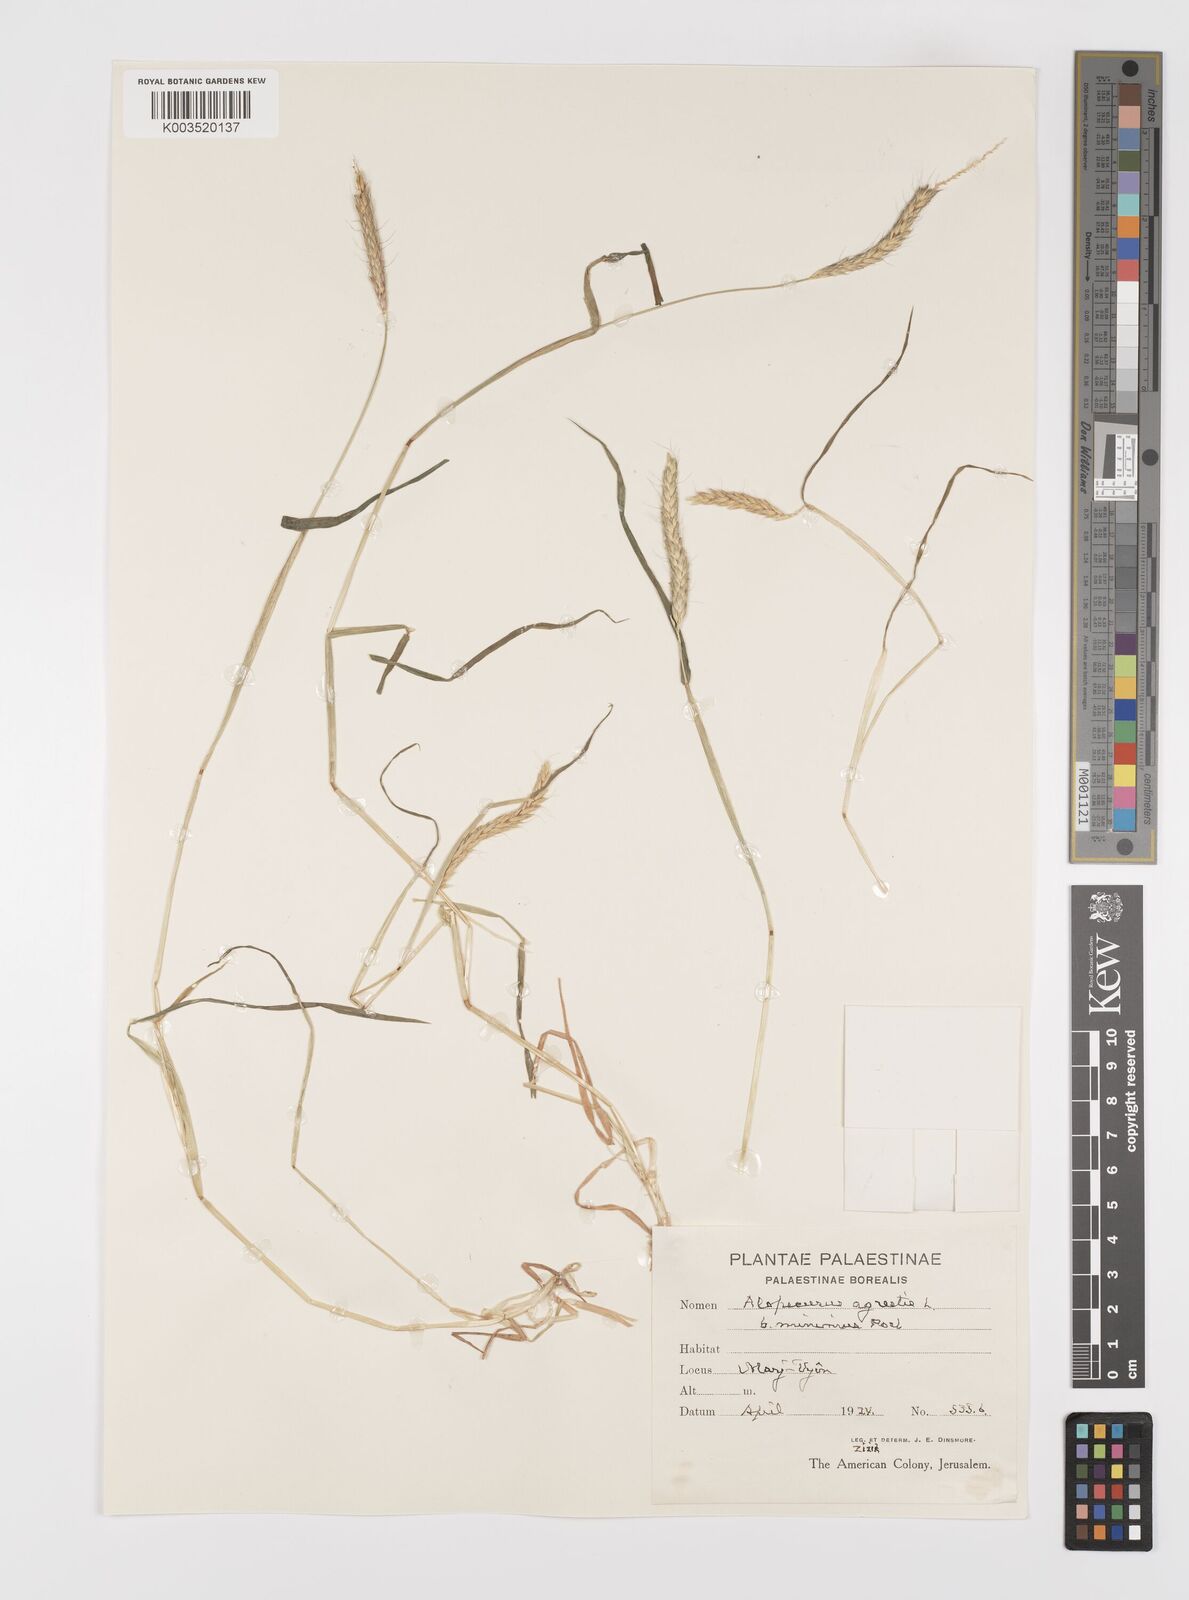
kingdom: Plantae
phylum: Tracheophyta
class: Liliopsida
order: Poales
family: Poaceae
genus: Alopecurus
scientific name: Alopecurus myosuroides
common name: Black-grass
